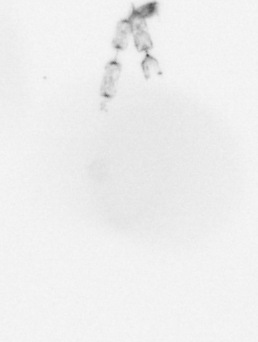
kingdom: Chromista
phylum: Ochrophyta
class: Bacillariophyceae
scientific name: Bacillariophyceae
